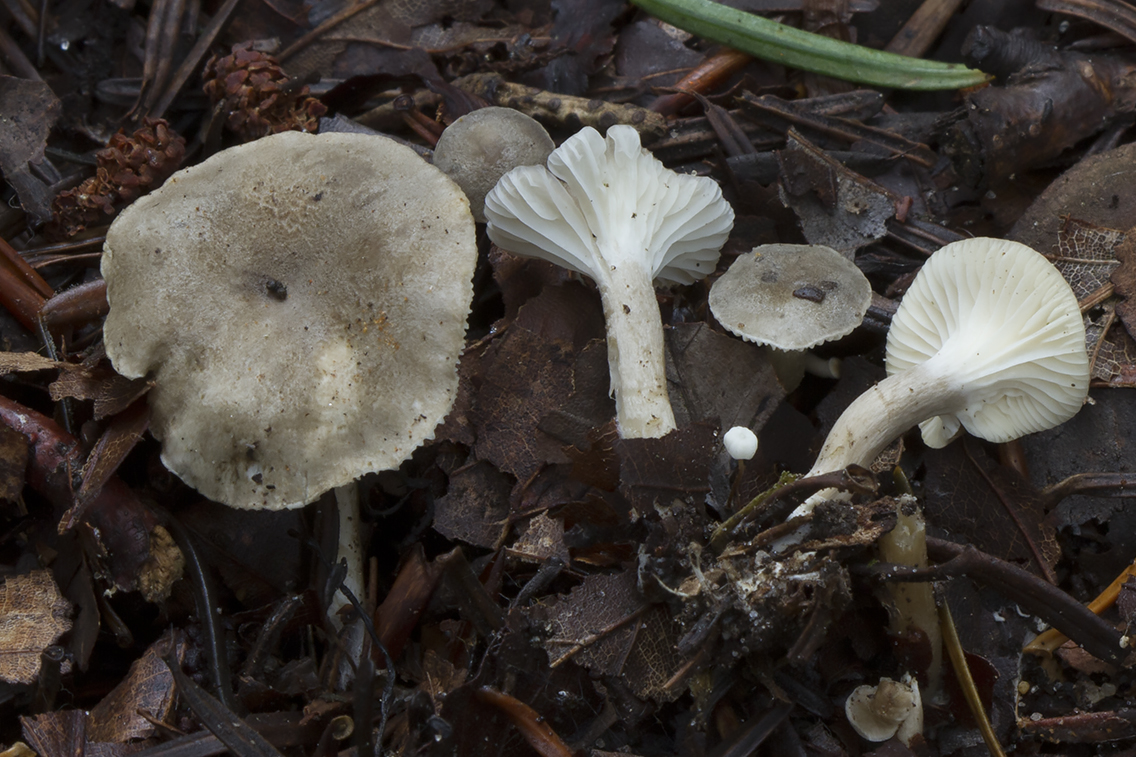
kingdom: Fungi
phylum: Basidiomycota
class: Agaricomycetes
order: Agaricales
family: Hygrophoraceae
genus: Spodocybe
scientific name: Spodocybe trulliformis
